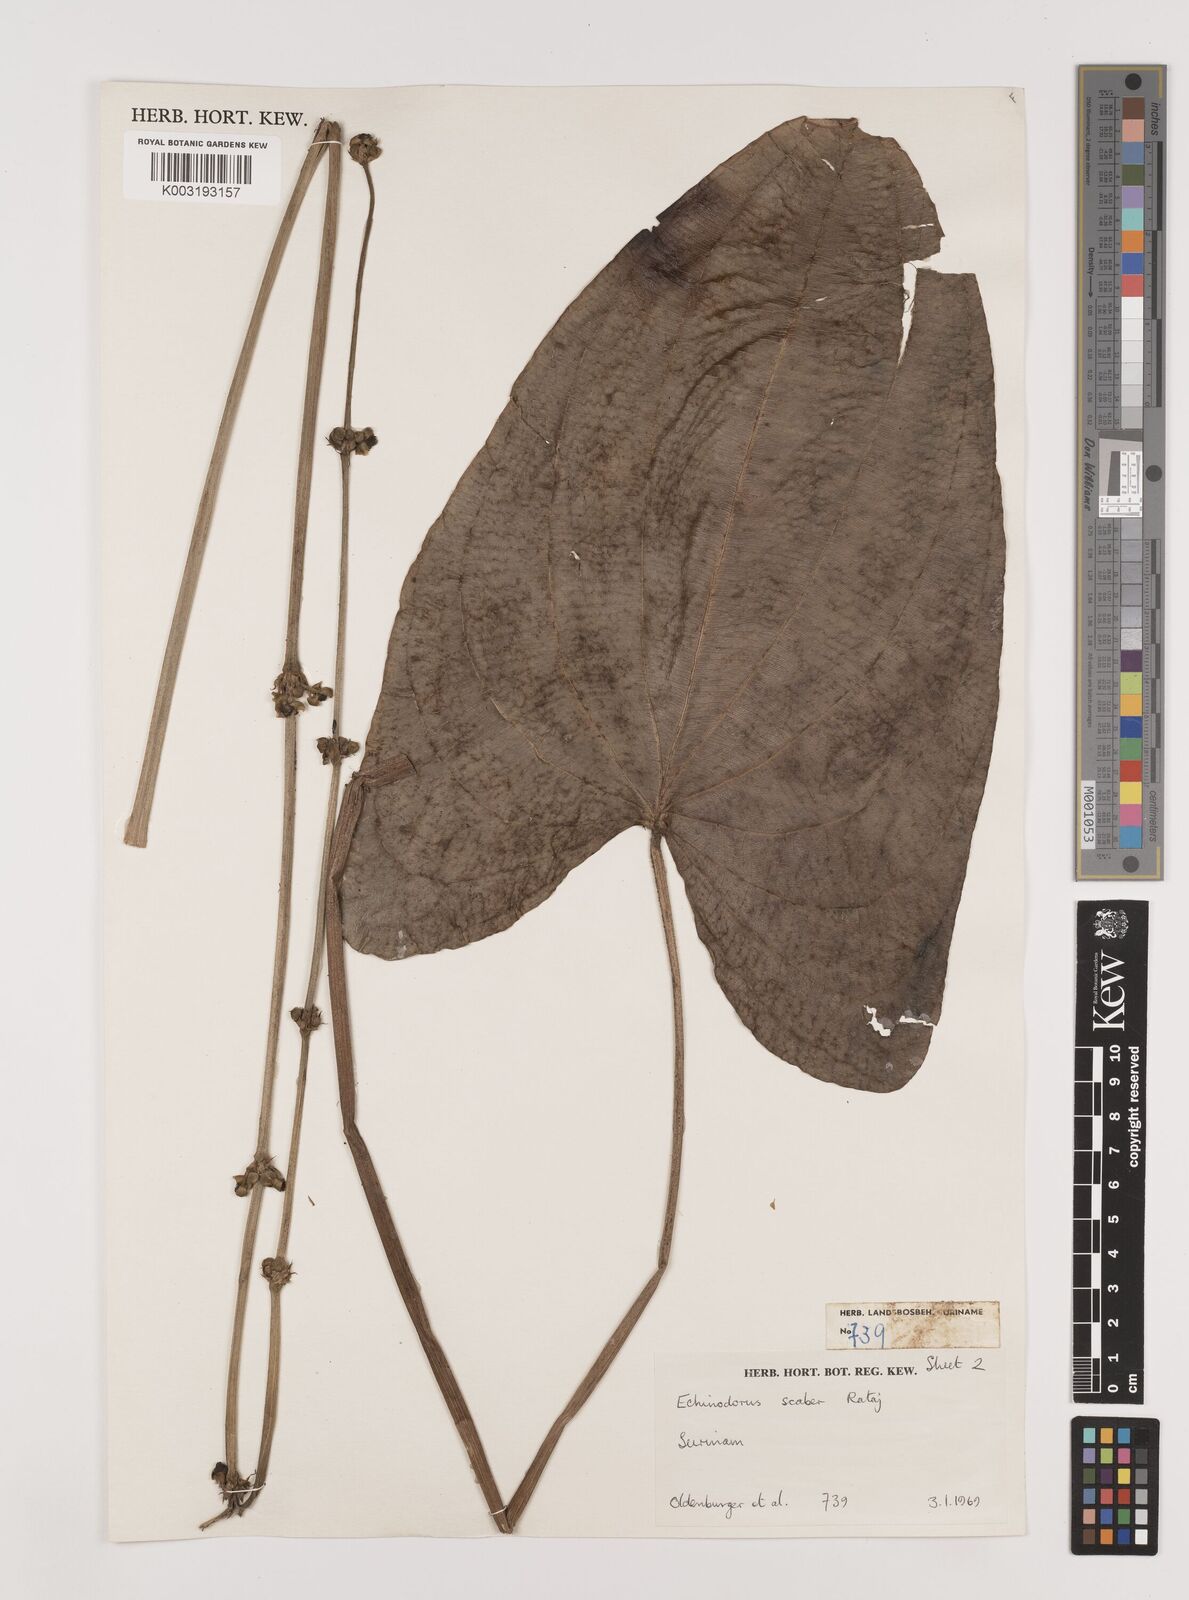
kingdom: Plantae
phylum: Tracheophyta
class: Liliopsida
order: Alismatales
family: Alismataceae
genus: Aquarius
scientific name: Aquarius scaber
